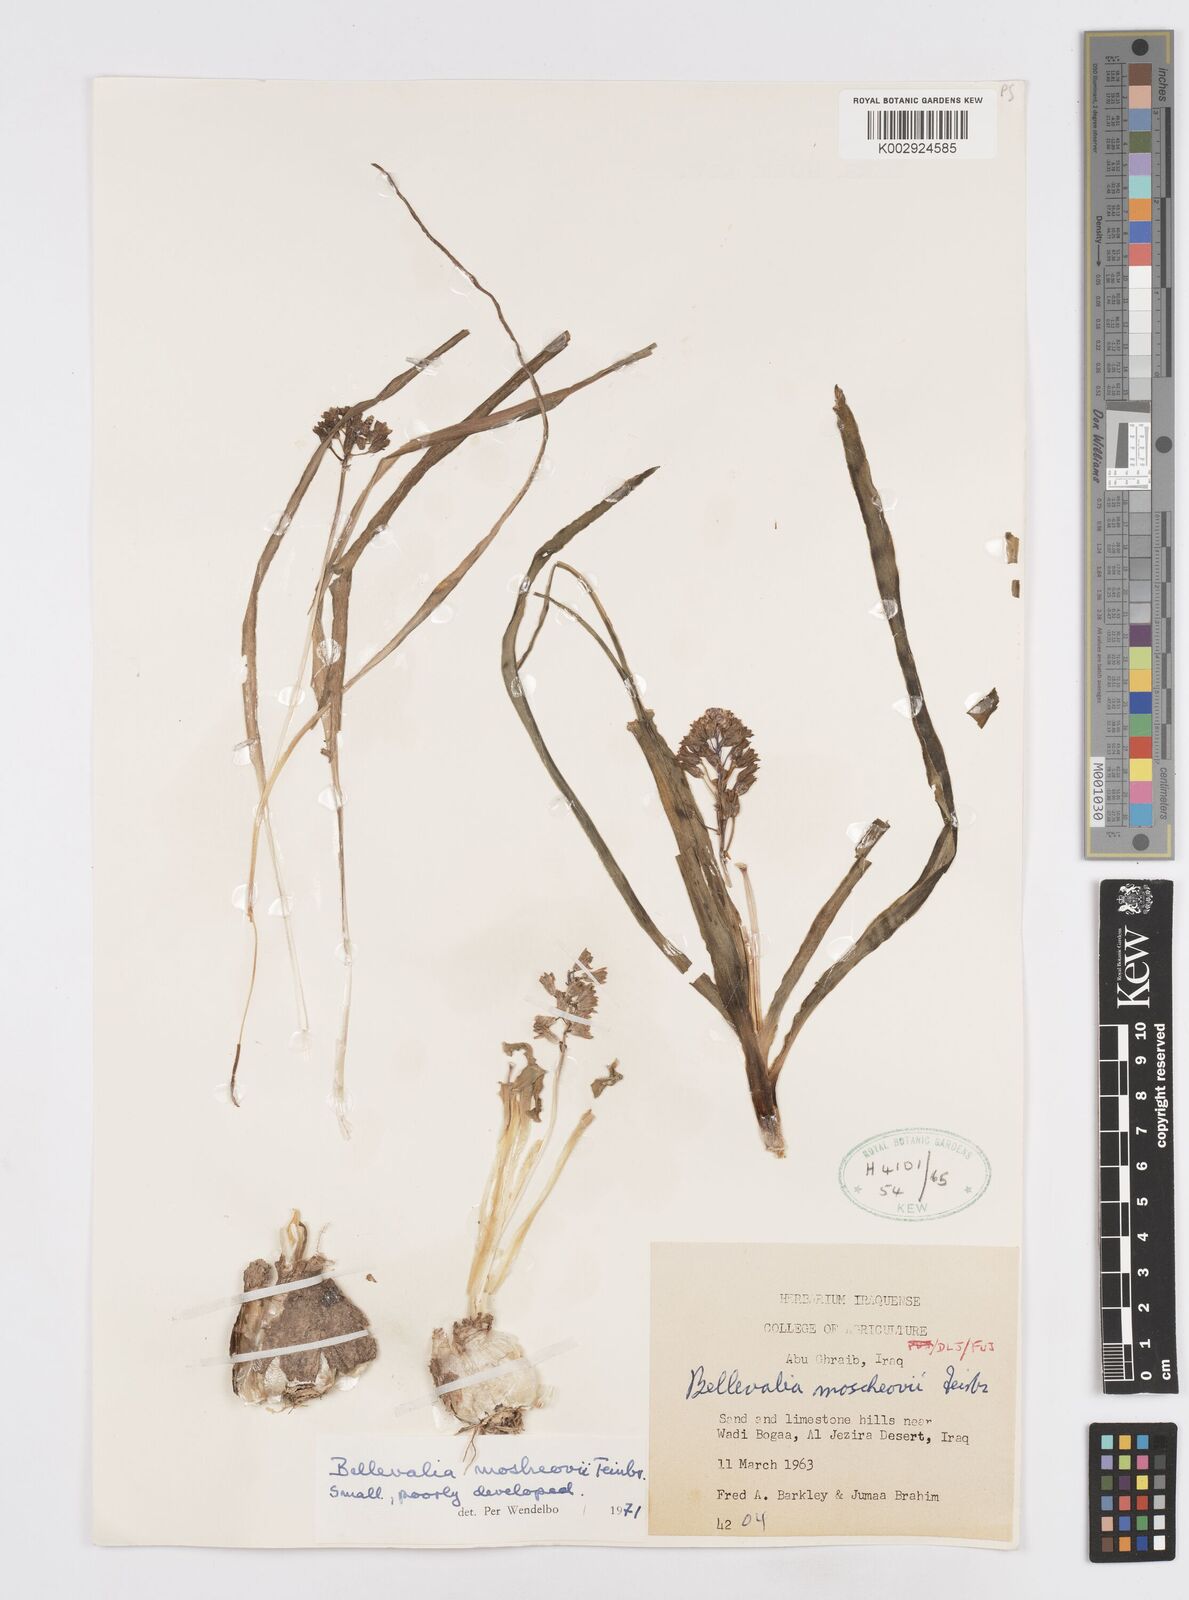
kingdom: Plantae
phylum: Tracheophyta
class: Liliopsida
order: Asparagales
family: Asparagaceae
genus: Bellevalia
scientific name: Bellevalia mosheovii
